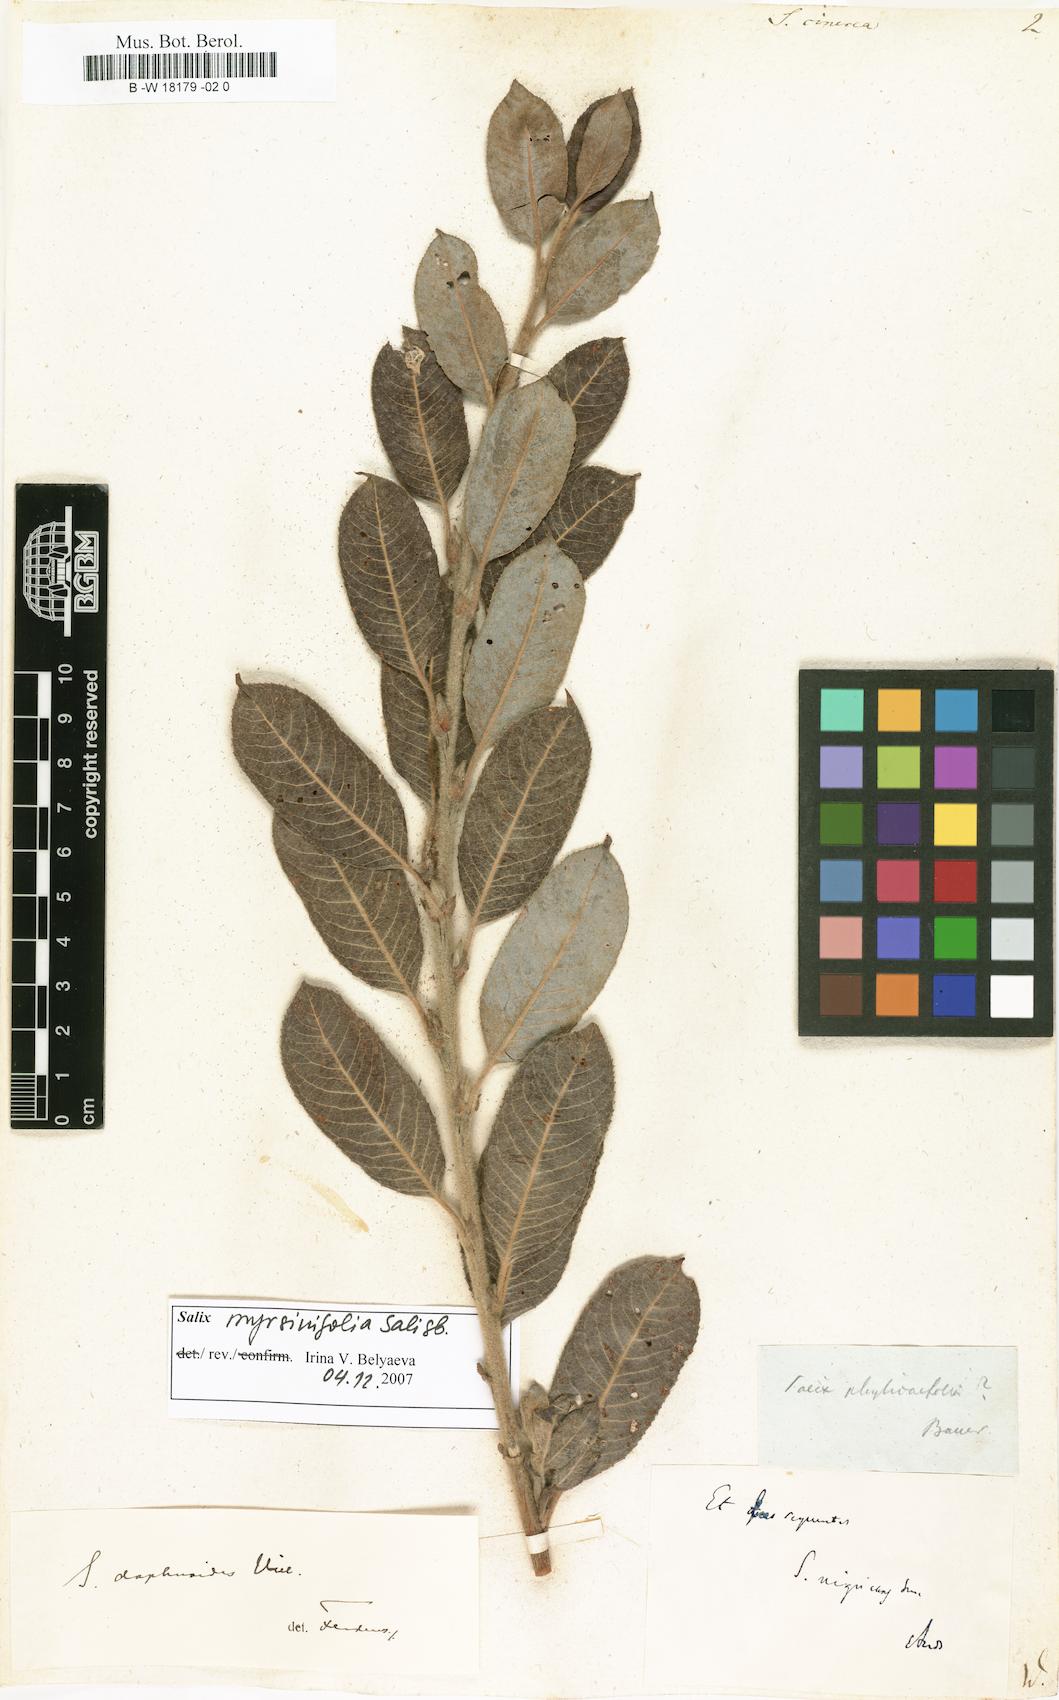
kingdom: Plantae
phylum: Tracheophyta
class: Magnoliopsida
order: Malpighiales
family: Salicaceae
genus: Salix
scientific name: Salix cinerea
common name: Common sallow
